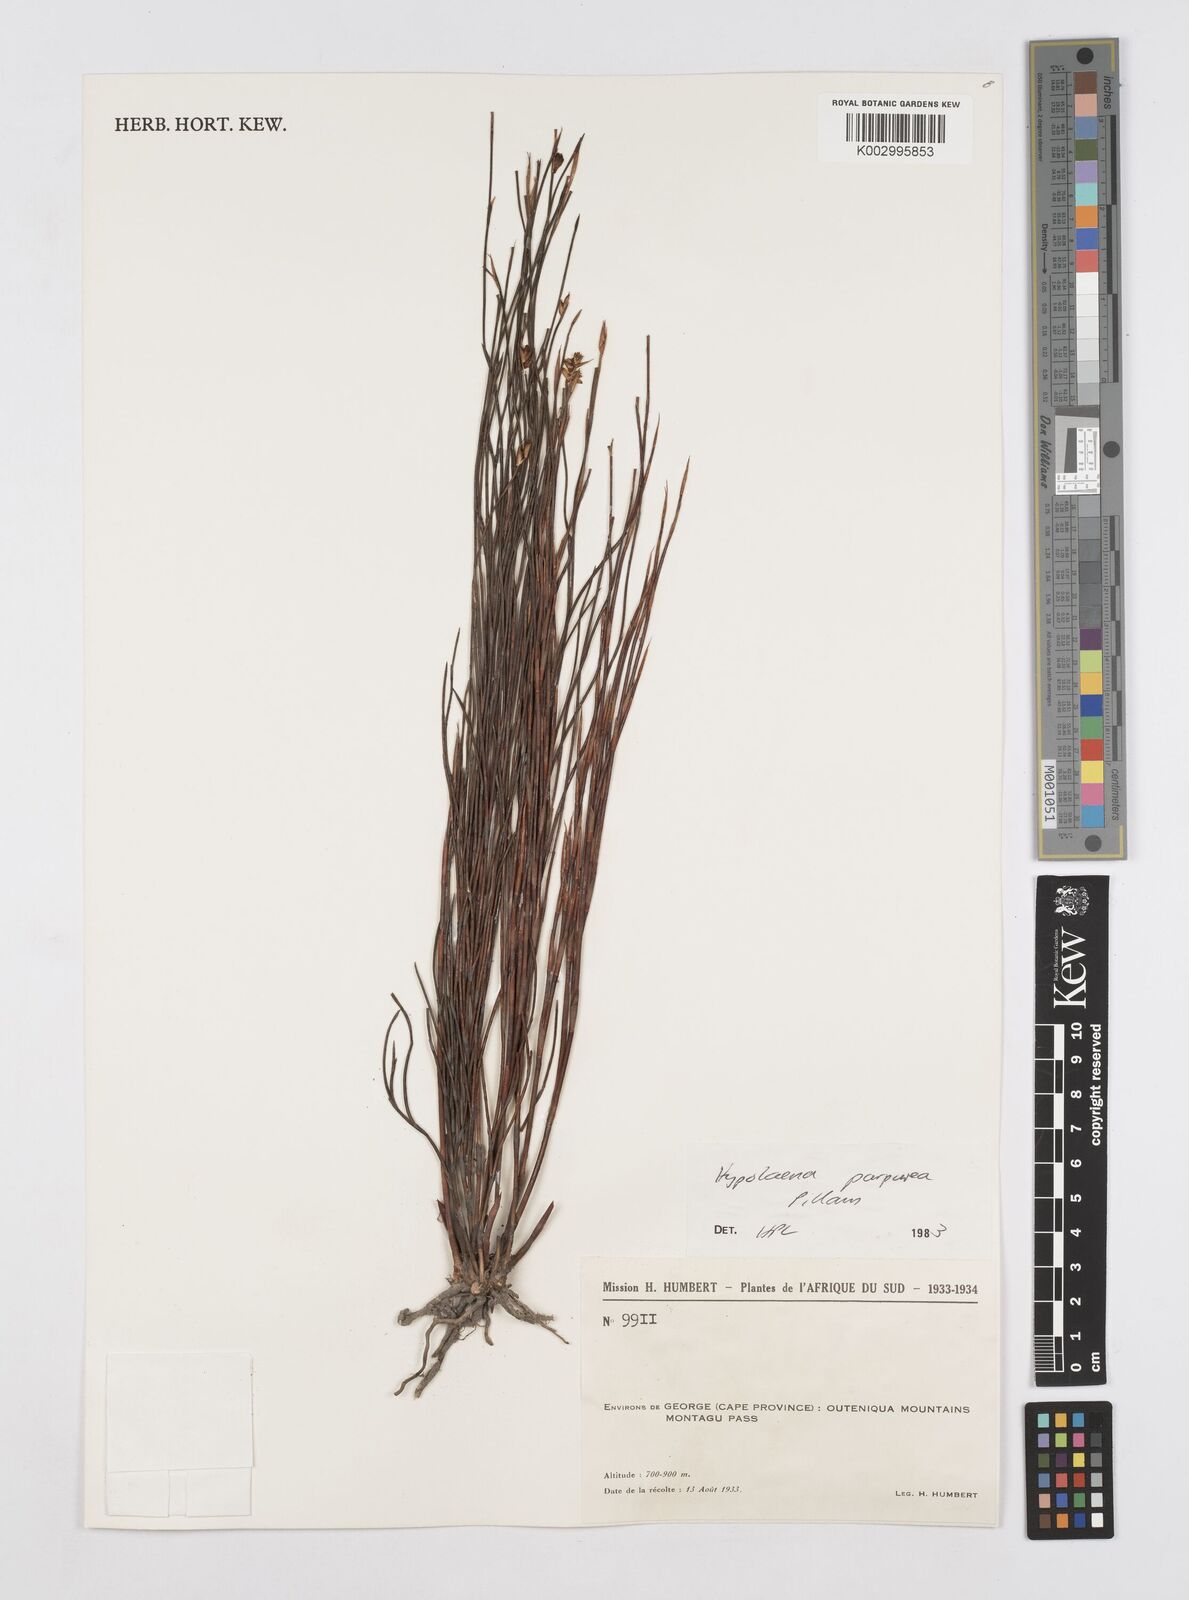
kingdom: Plantae
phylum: Tracheophyta
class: Liliopsida
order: Poales
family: Restionaceae
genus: Mastersiella
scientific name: Mastersiella purpurea
